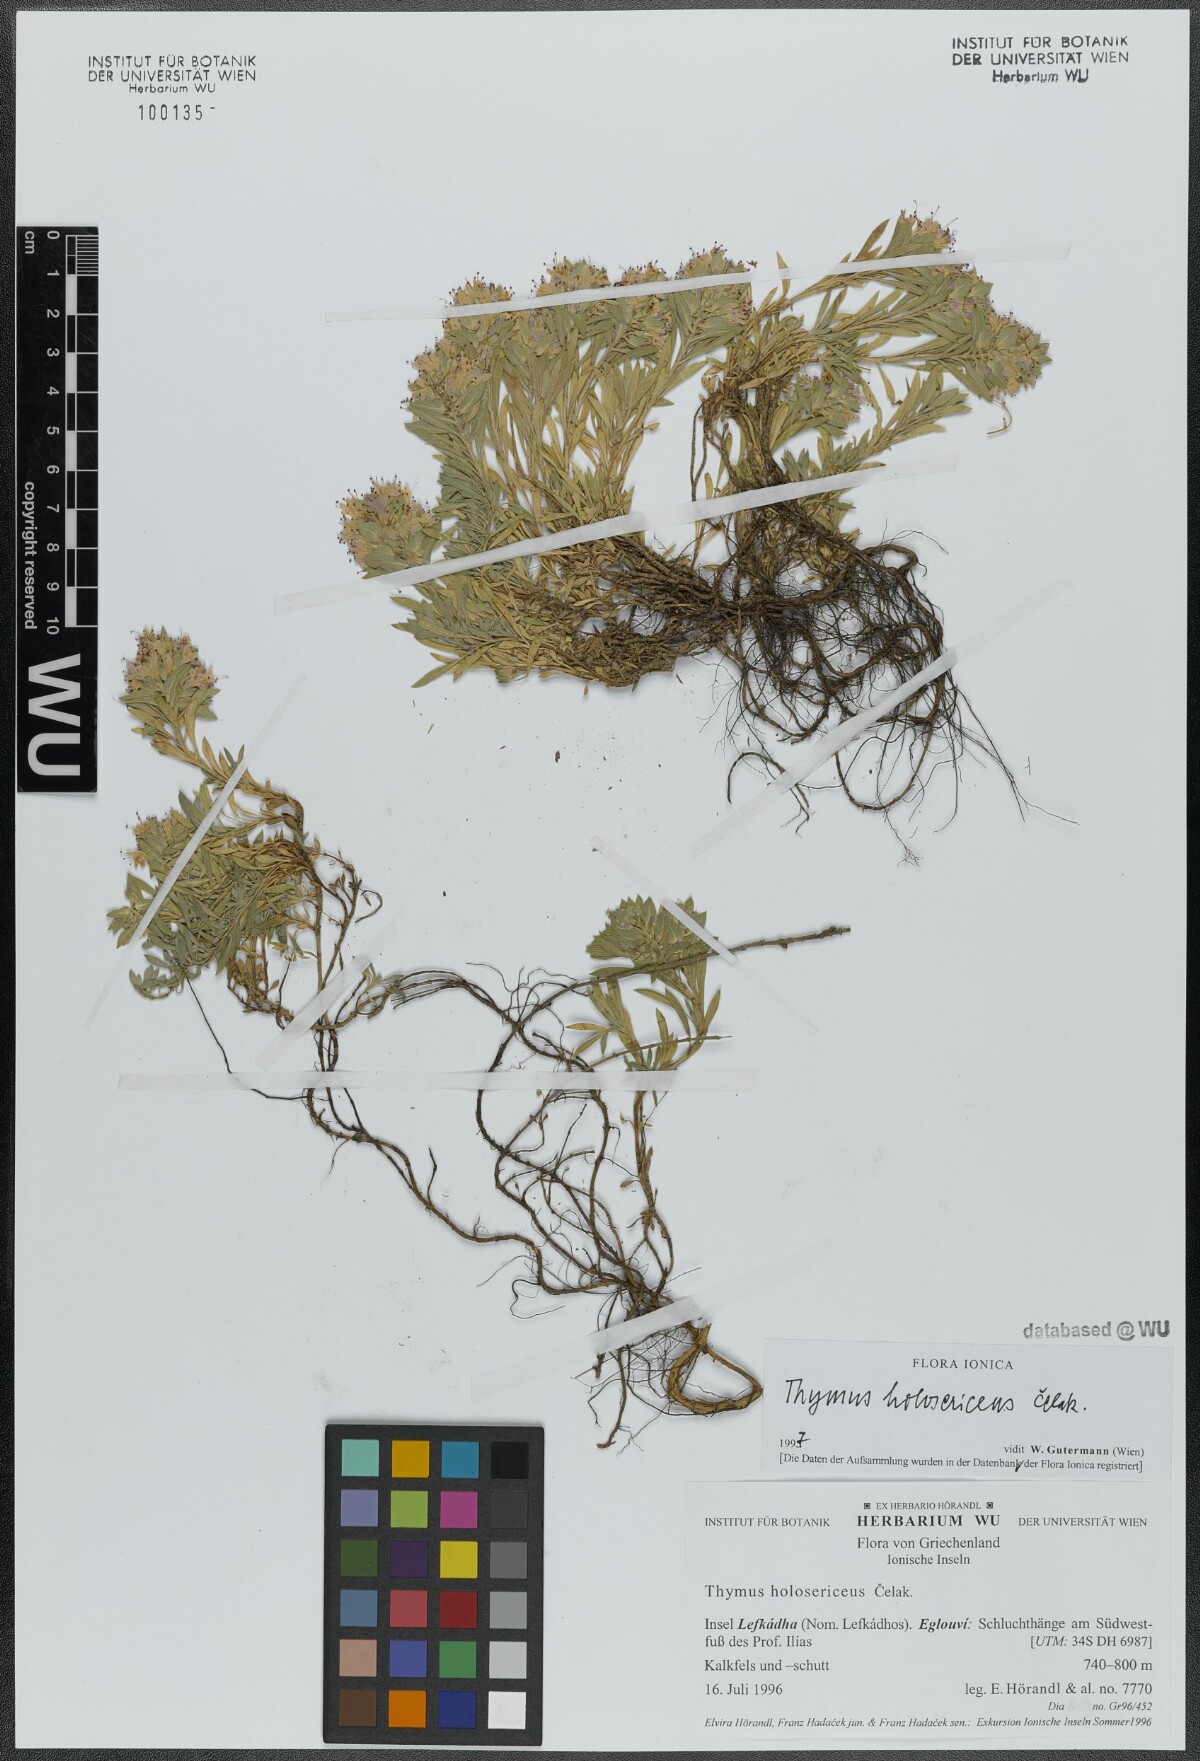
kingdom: Plantae
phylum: Tracheophyta
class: Magnoliopsida
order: Lamiales
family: Lamiaceae
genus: Thymus
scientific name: Thymus holosericeus
